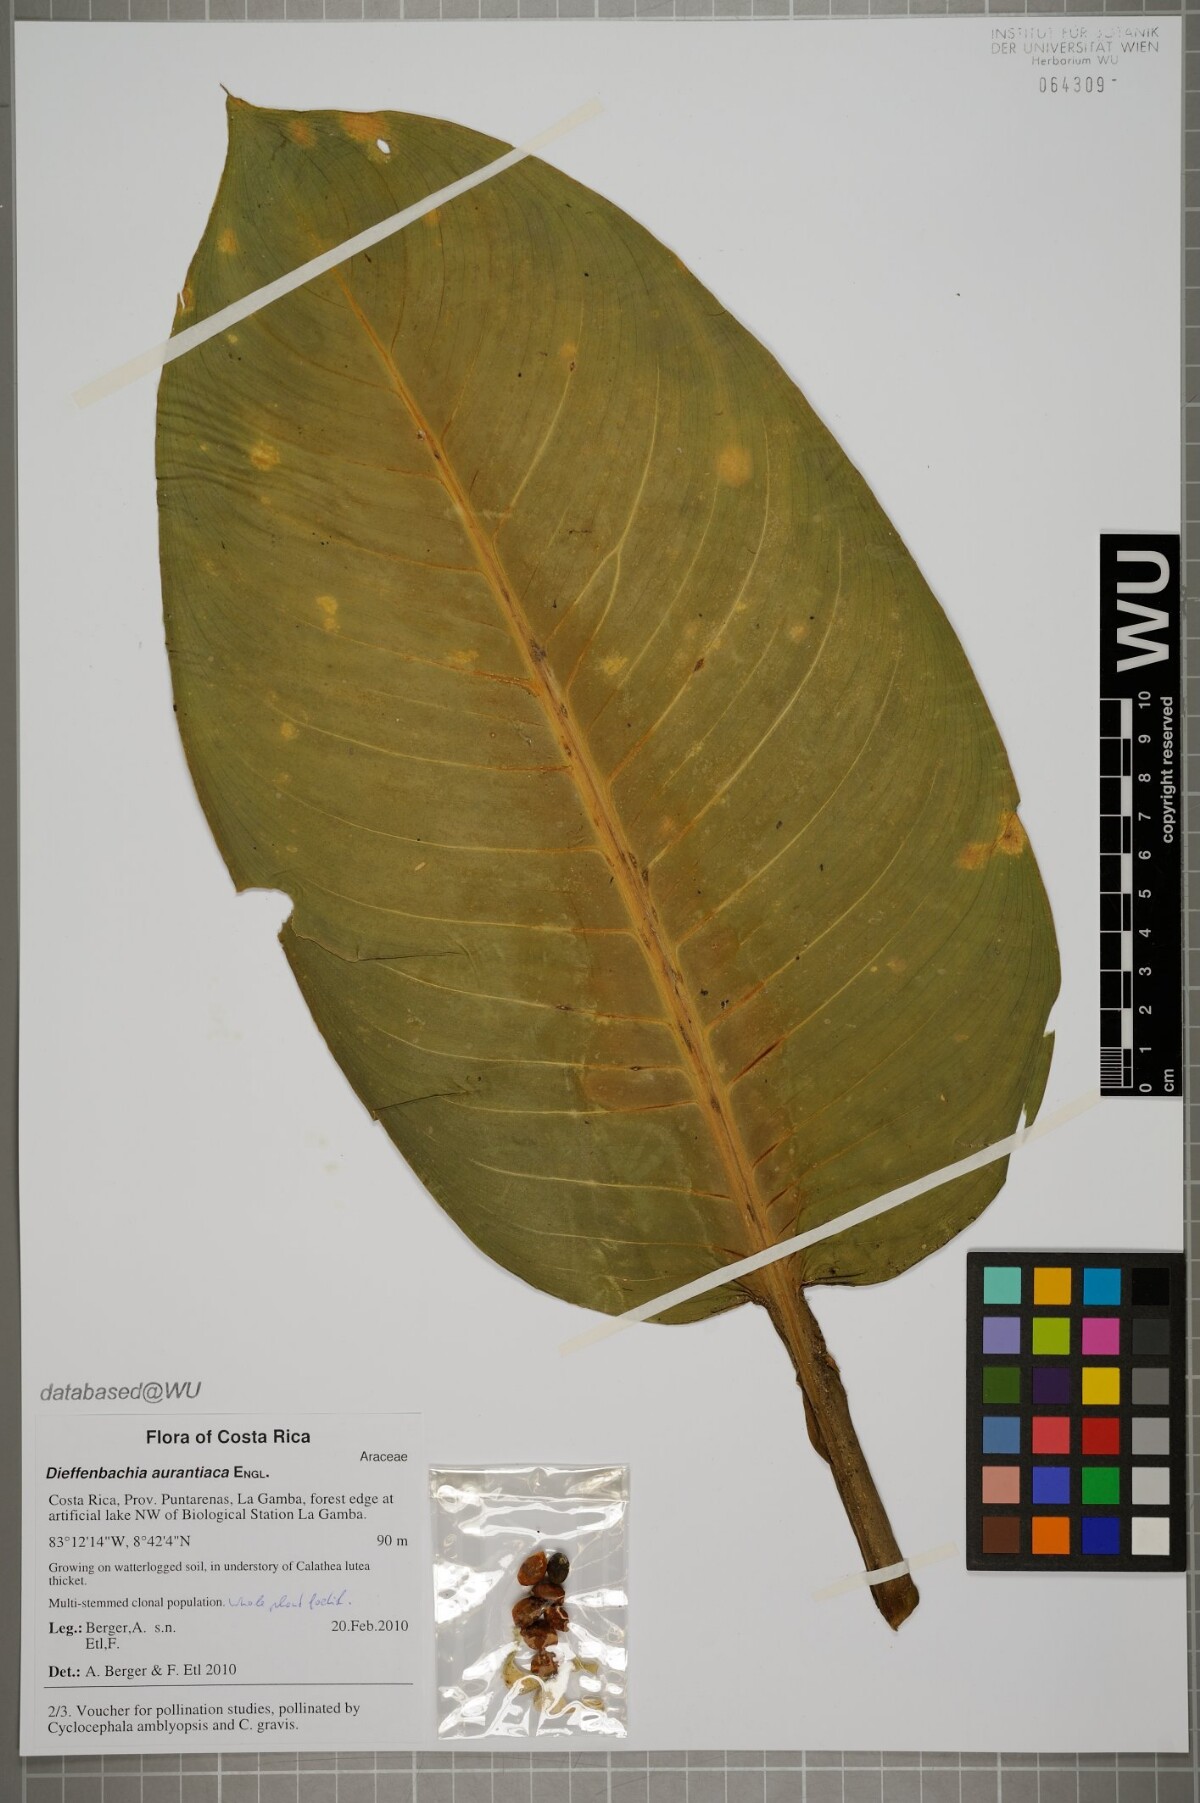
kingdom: Plantae
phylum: Tracheophyta
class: Liliopsida
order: Alismatales
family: Araceae
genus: Dieffenbachia
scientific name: Dieffenbachia aurantiaca
